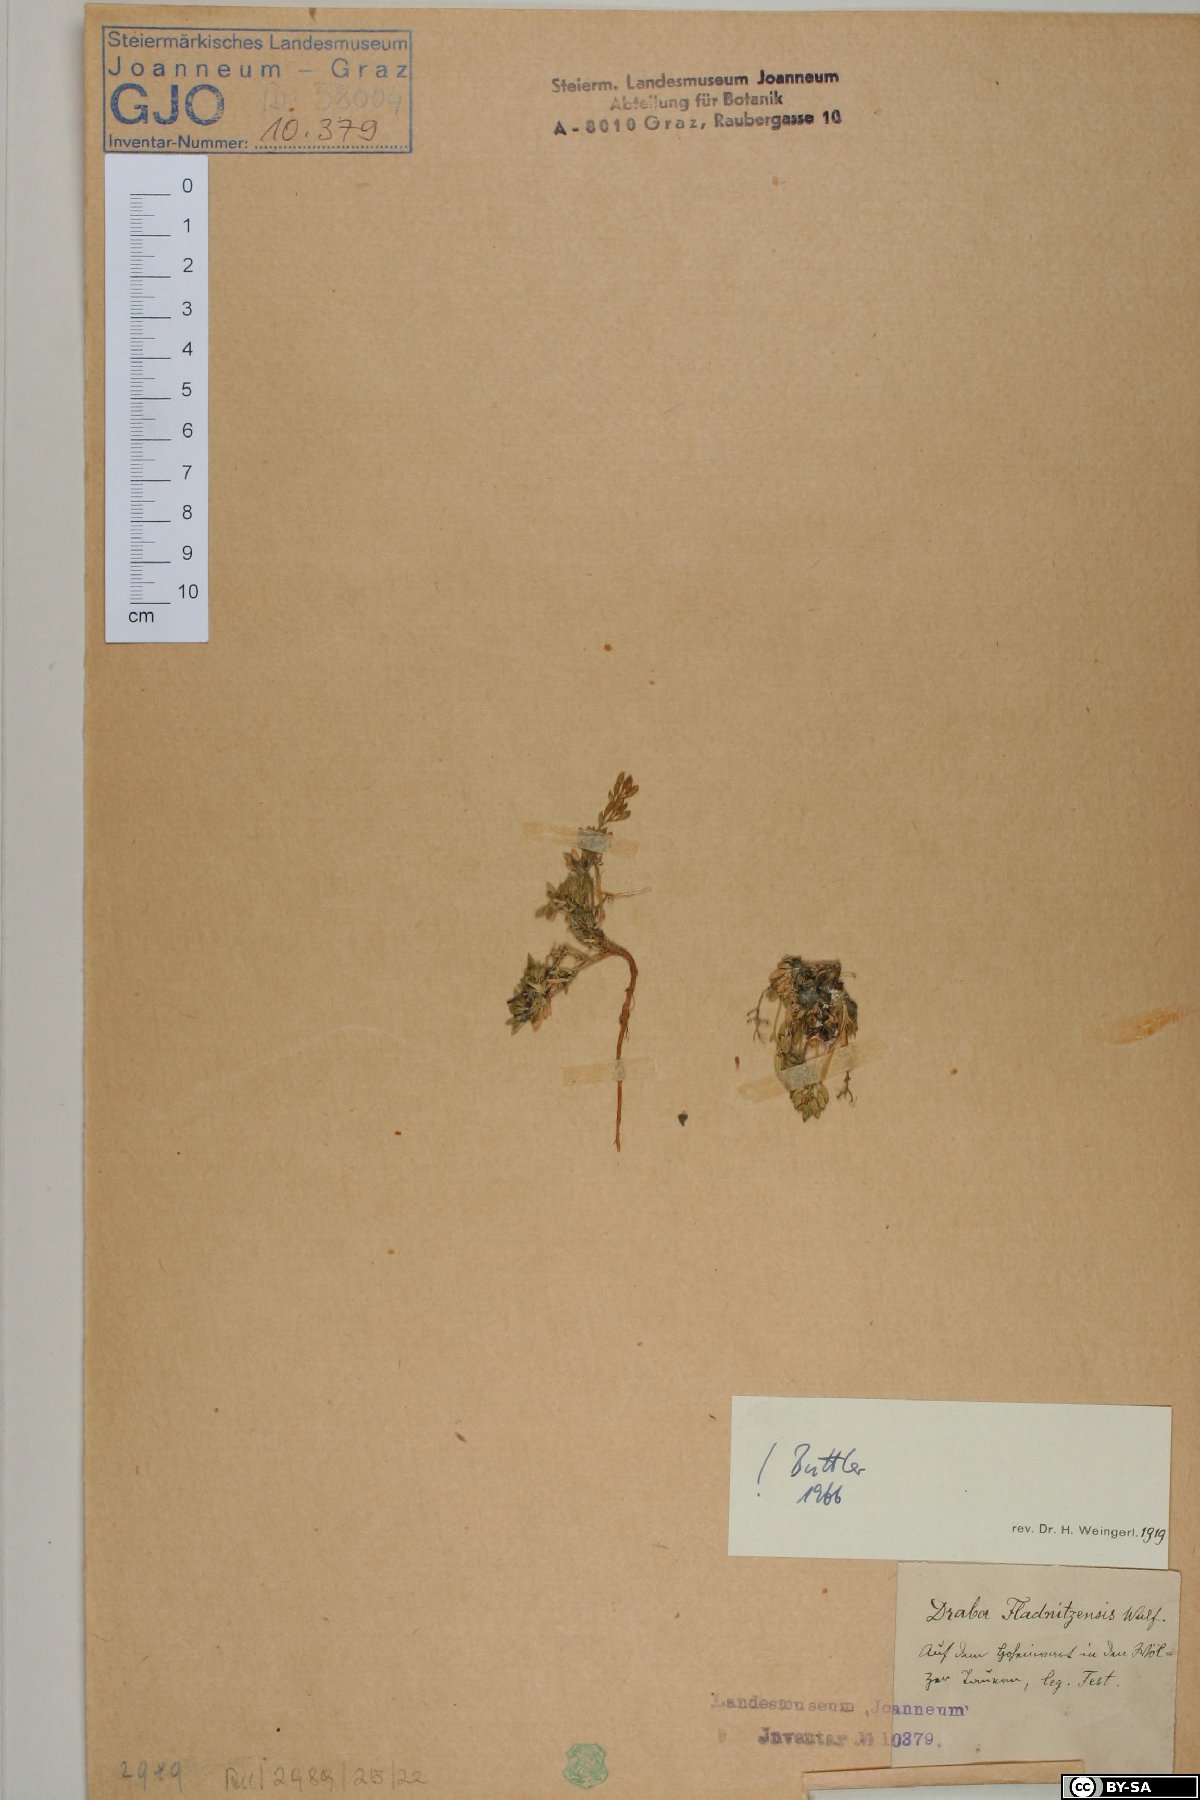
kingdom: Plantae
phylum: Tracheophyta
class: Magnoliopsida
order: Brassicales
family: Brassicaceae
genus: Draba
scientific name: Draba fladnizensis
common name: Austrian draba
